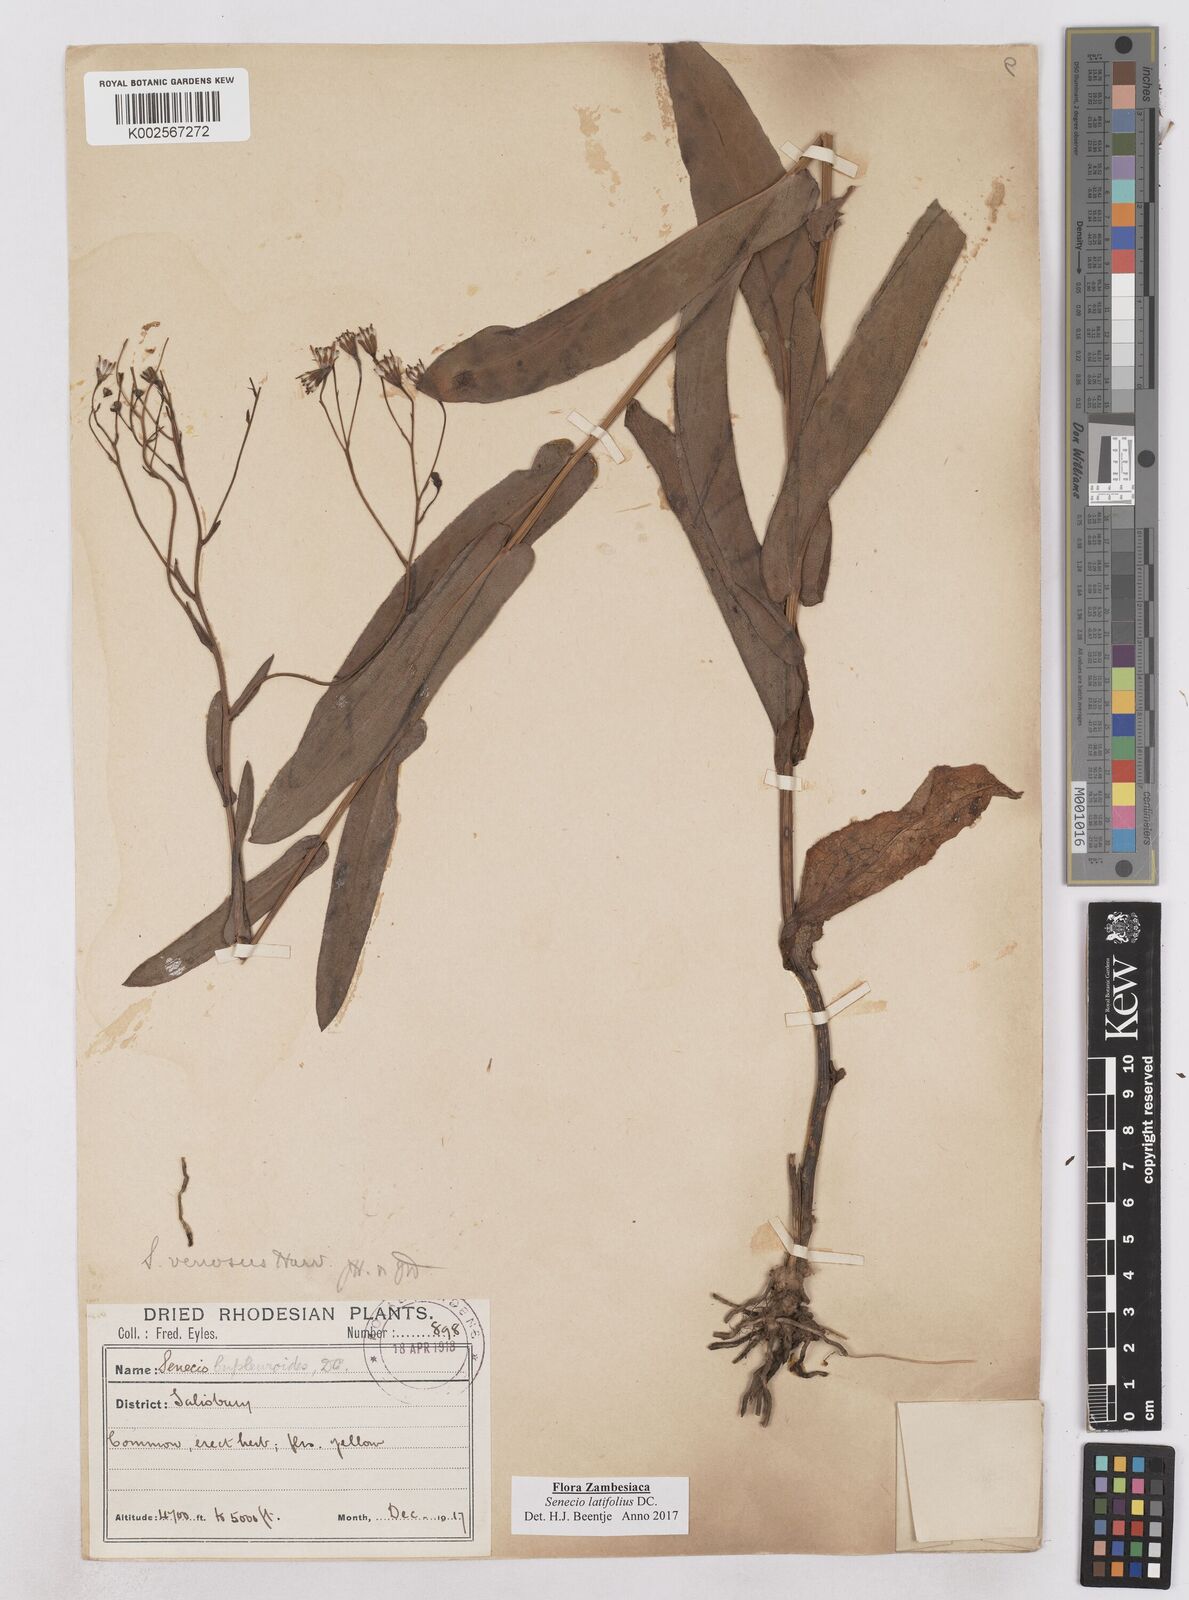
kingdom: Plantae
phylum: Tracheophyta
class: Magnoliopsida
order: Asterales
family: Asteraceae
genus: Senecio
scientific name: Senecio latifolius
